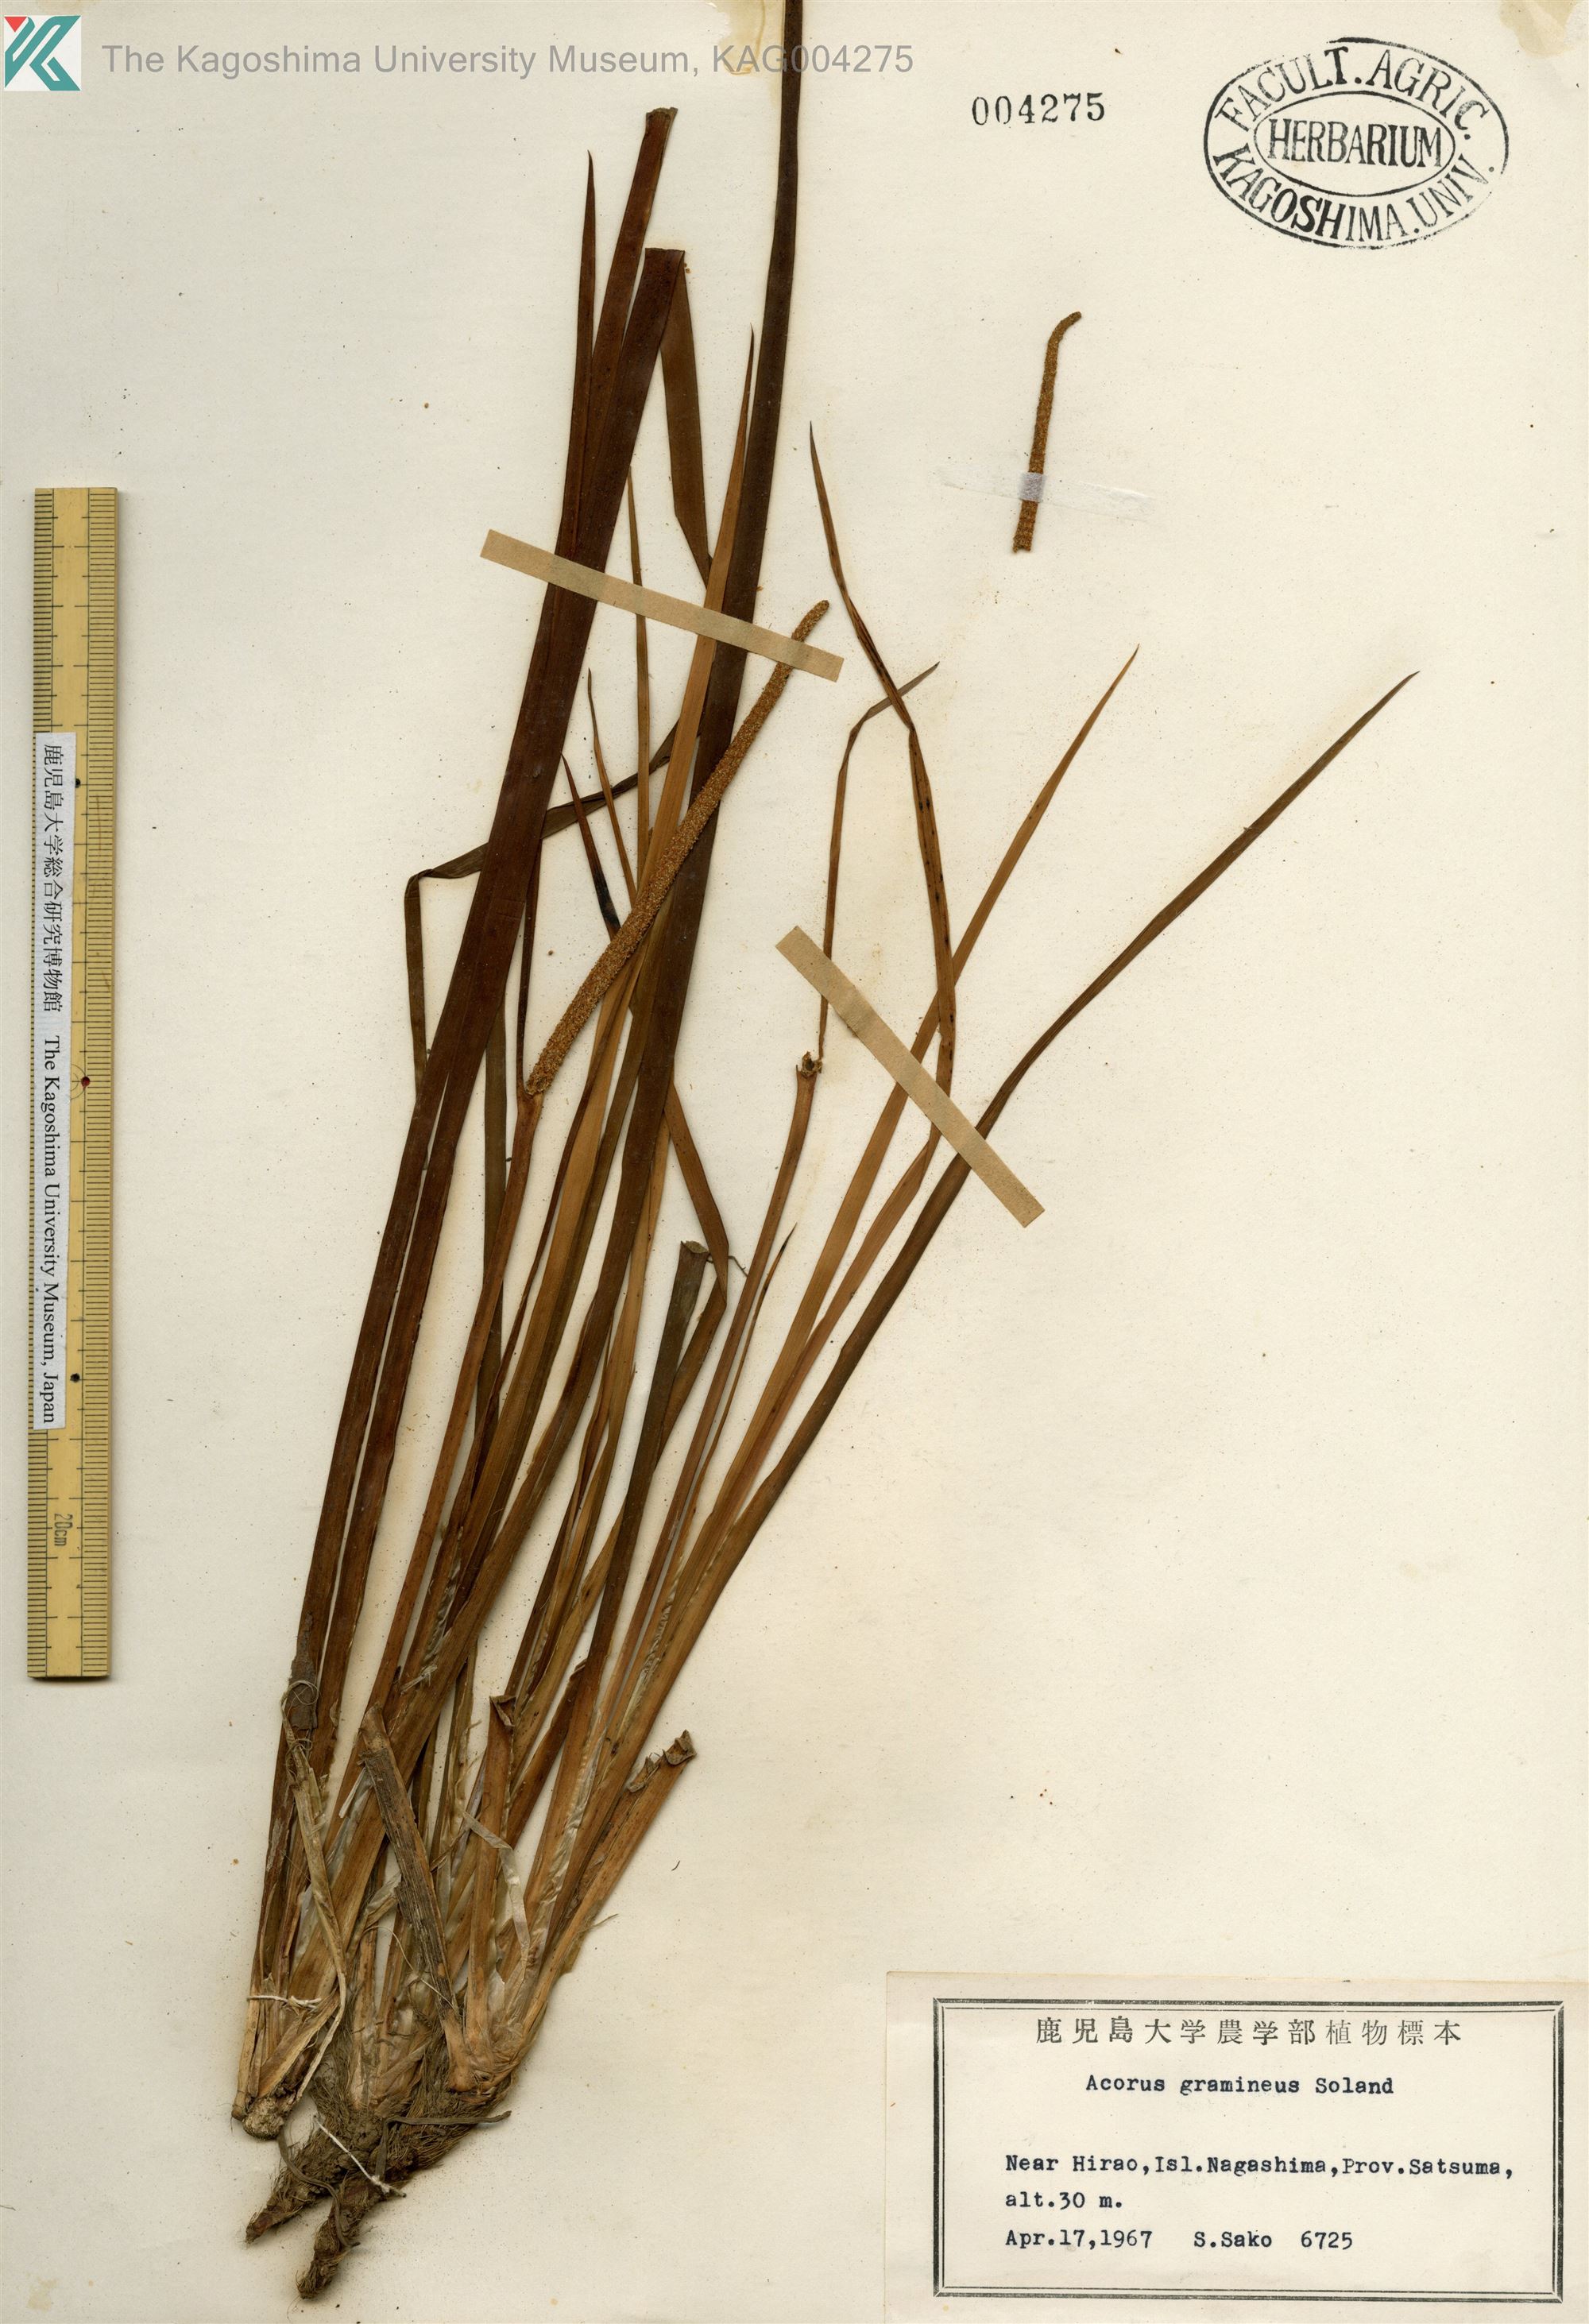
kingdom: Plantae
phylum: Tracheophyta
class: Liliopsida
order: Acorales
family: Acoraceae
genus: Acorus
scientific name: Acorus gramineus
